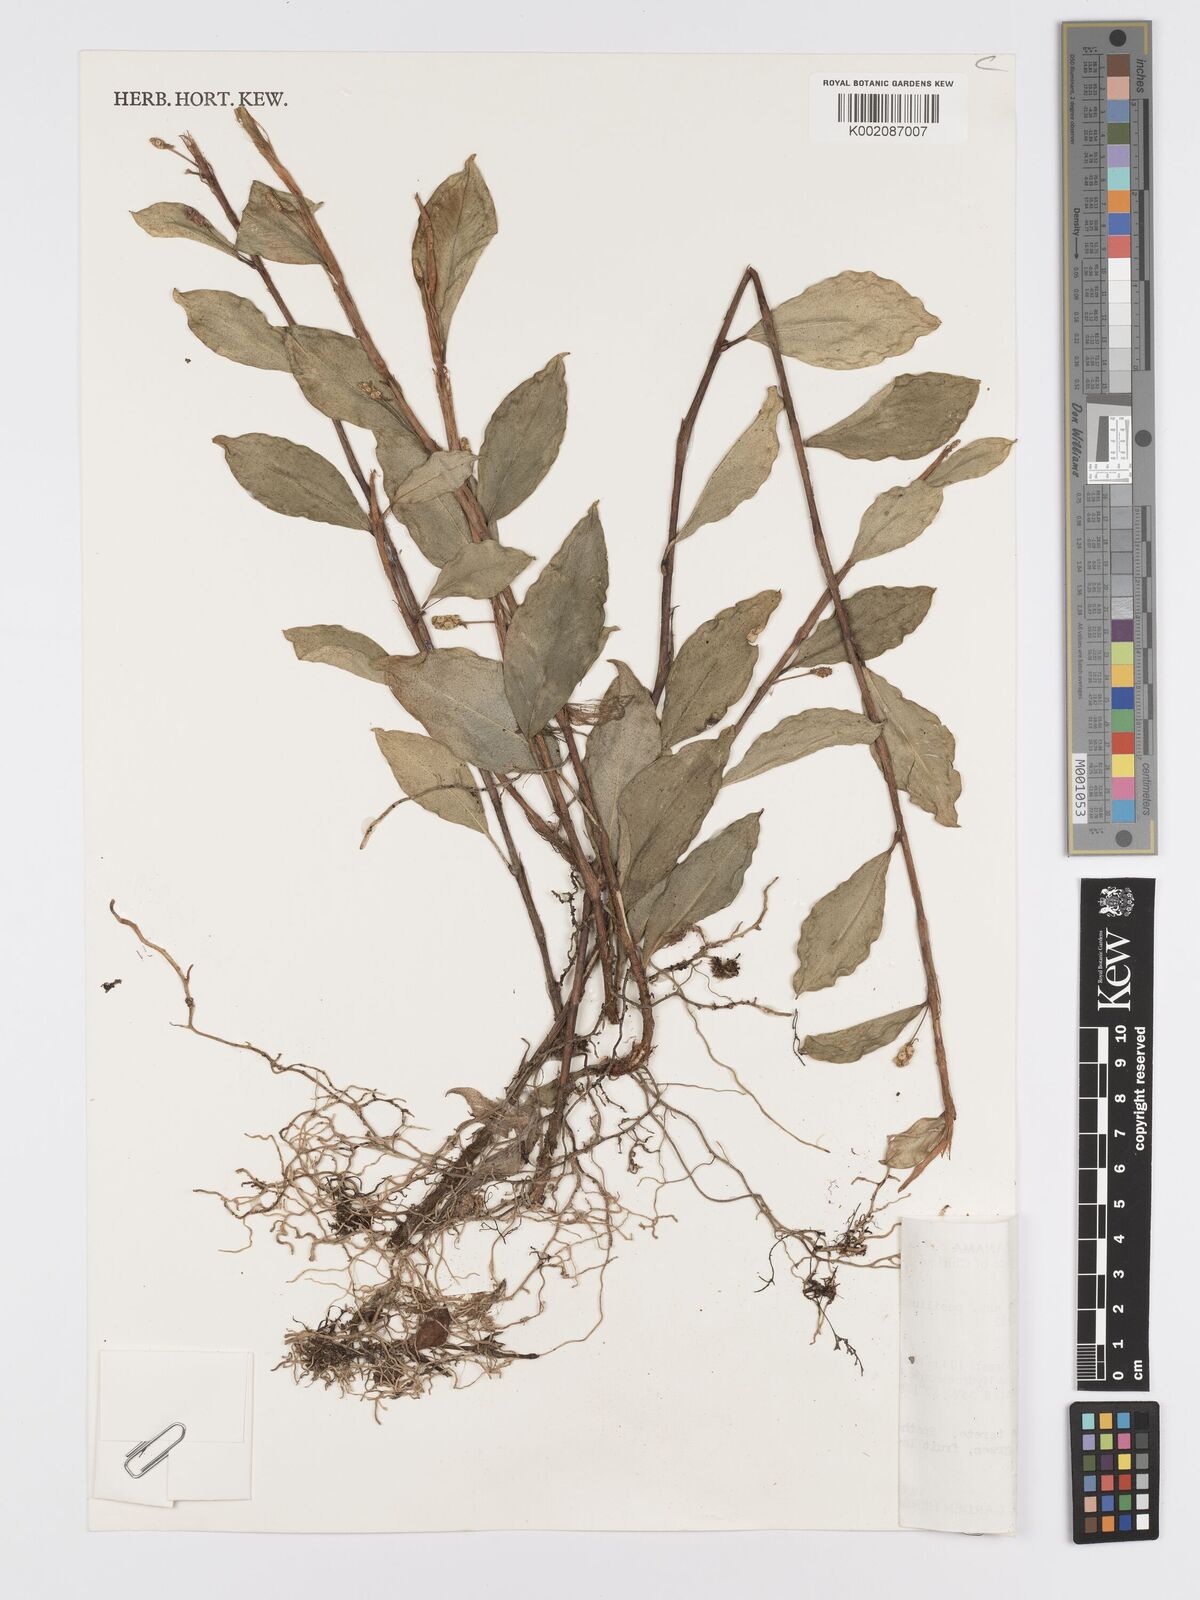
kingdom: Plantae
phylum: Tracheophyta
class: Liliopsida
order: Alismatales
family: Araceae
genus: Anthurium
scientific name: Anthurium scandens
